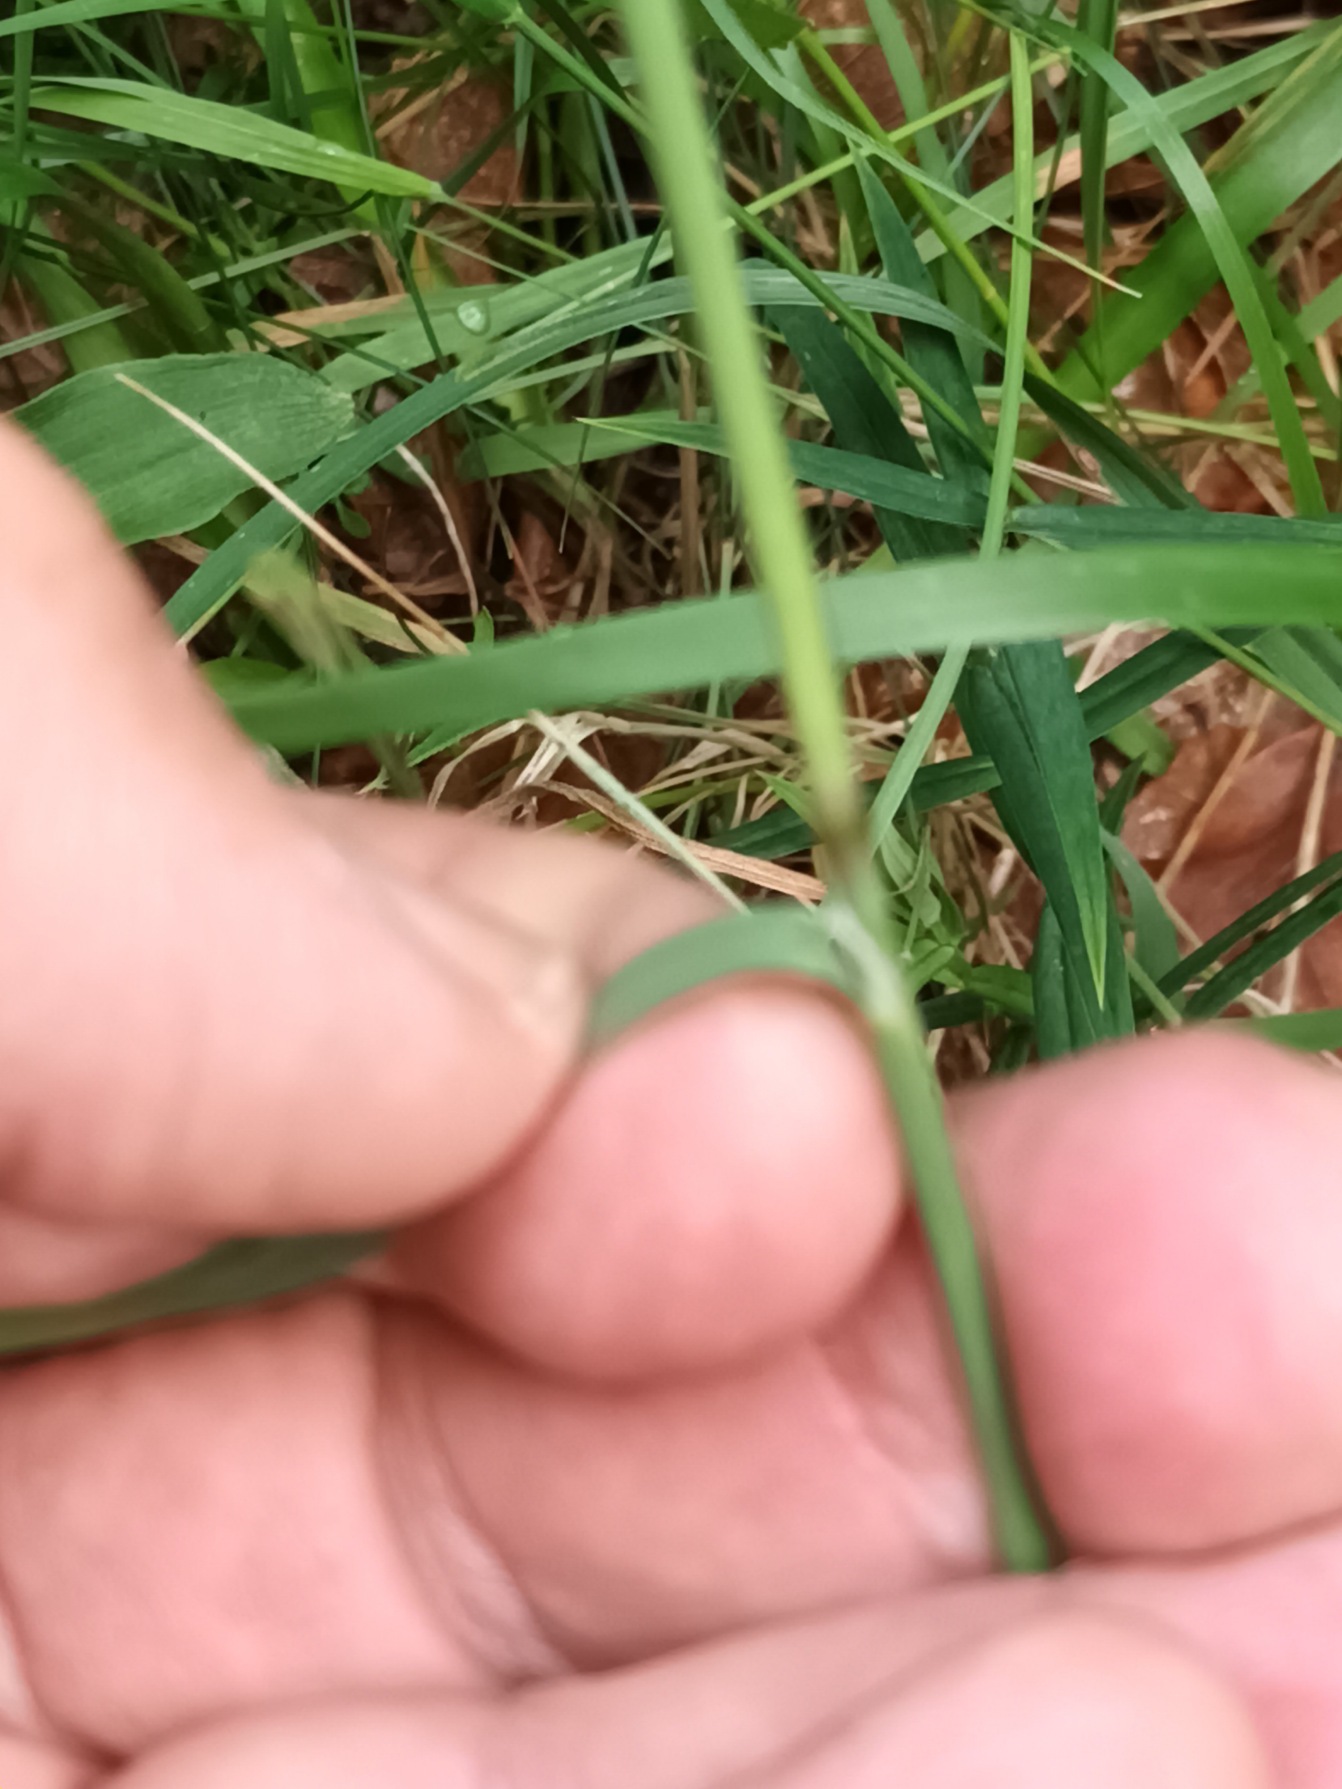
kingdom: Plantae
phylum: Tracheophyta
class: Liliopsida
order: Poales
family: Poaceae
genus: Calamagrostis
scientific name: Calamagrostis epigejos
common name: Bjerg-rørhvene
